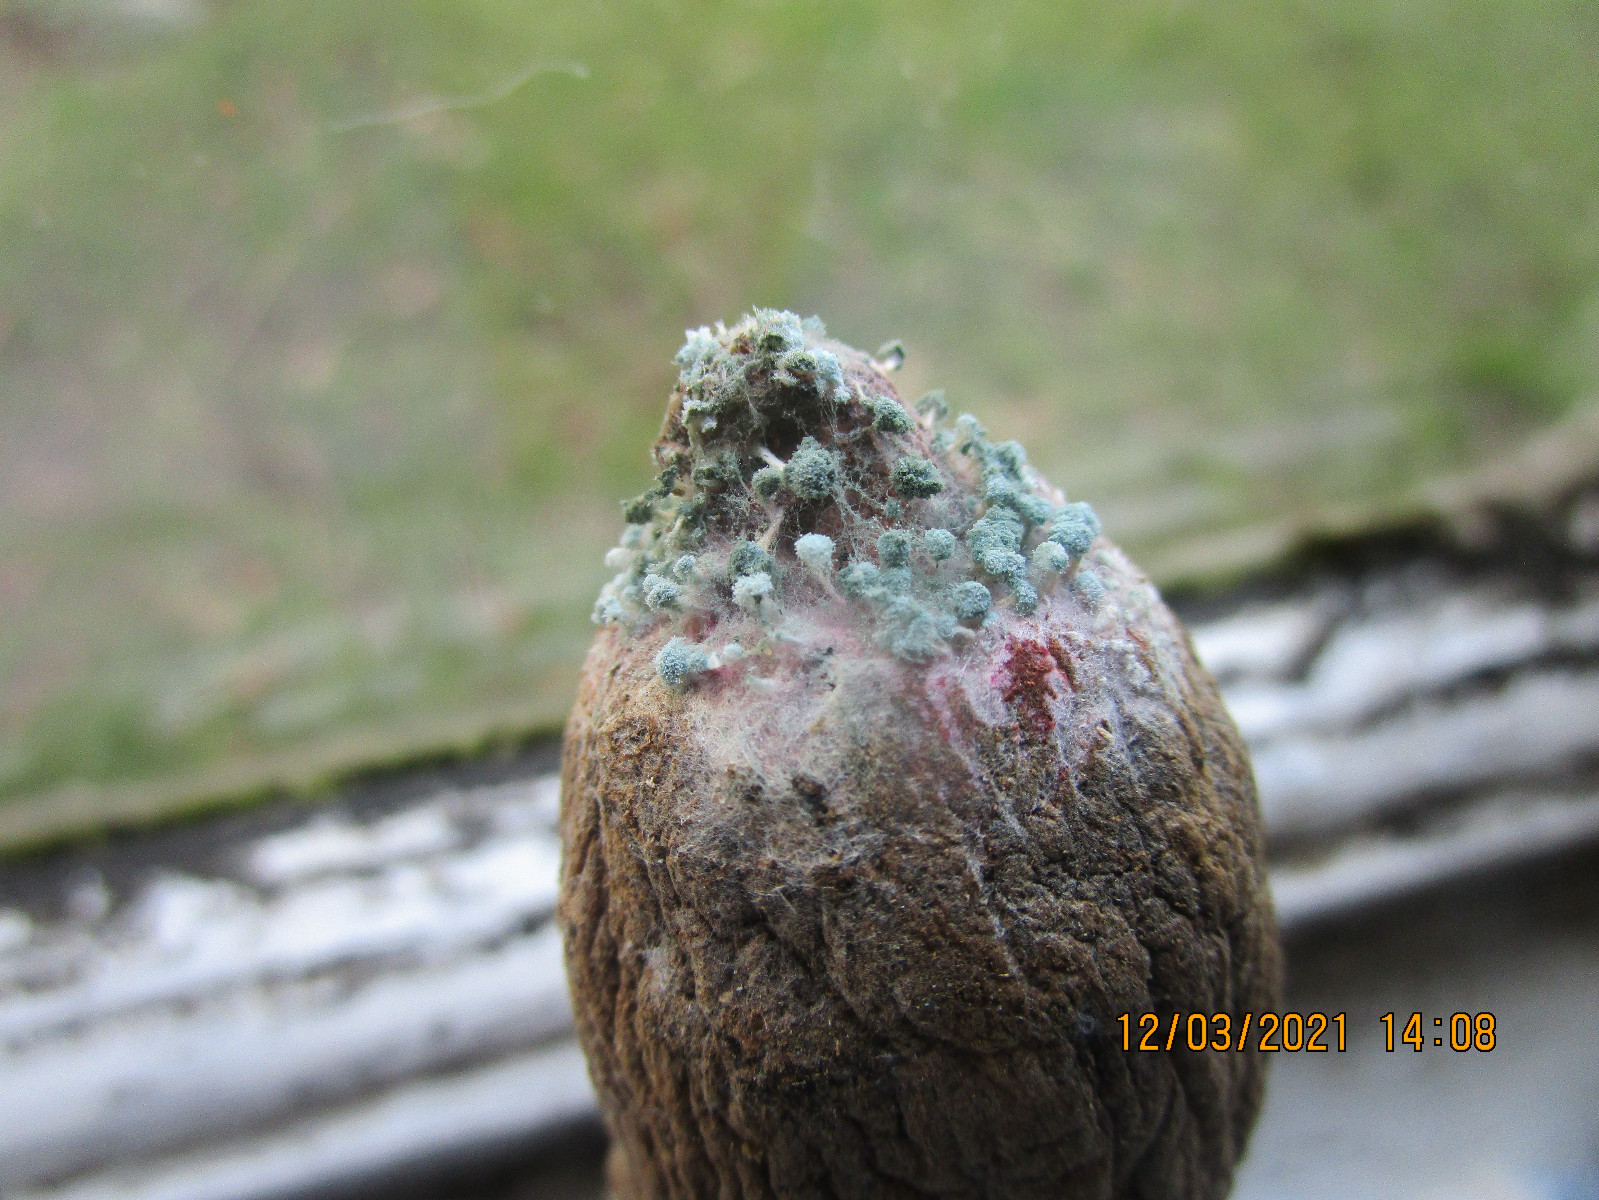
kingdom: Fungi
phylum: Ascomycota
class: Eurotiomycetes
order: Eurotiales
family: Aspergillaceae
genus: Penicillium
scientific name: Penicillium
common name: penselskimmel
